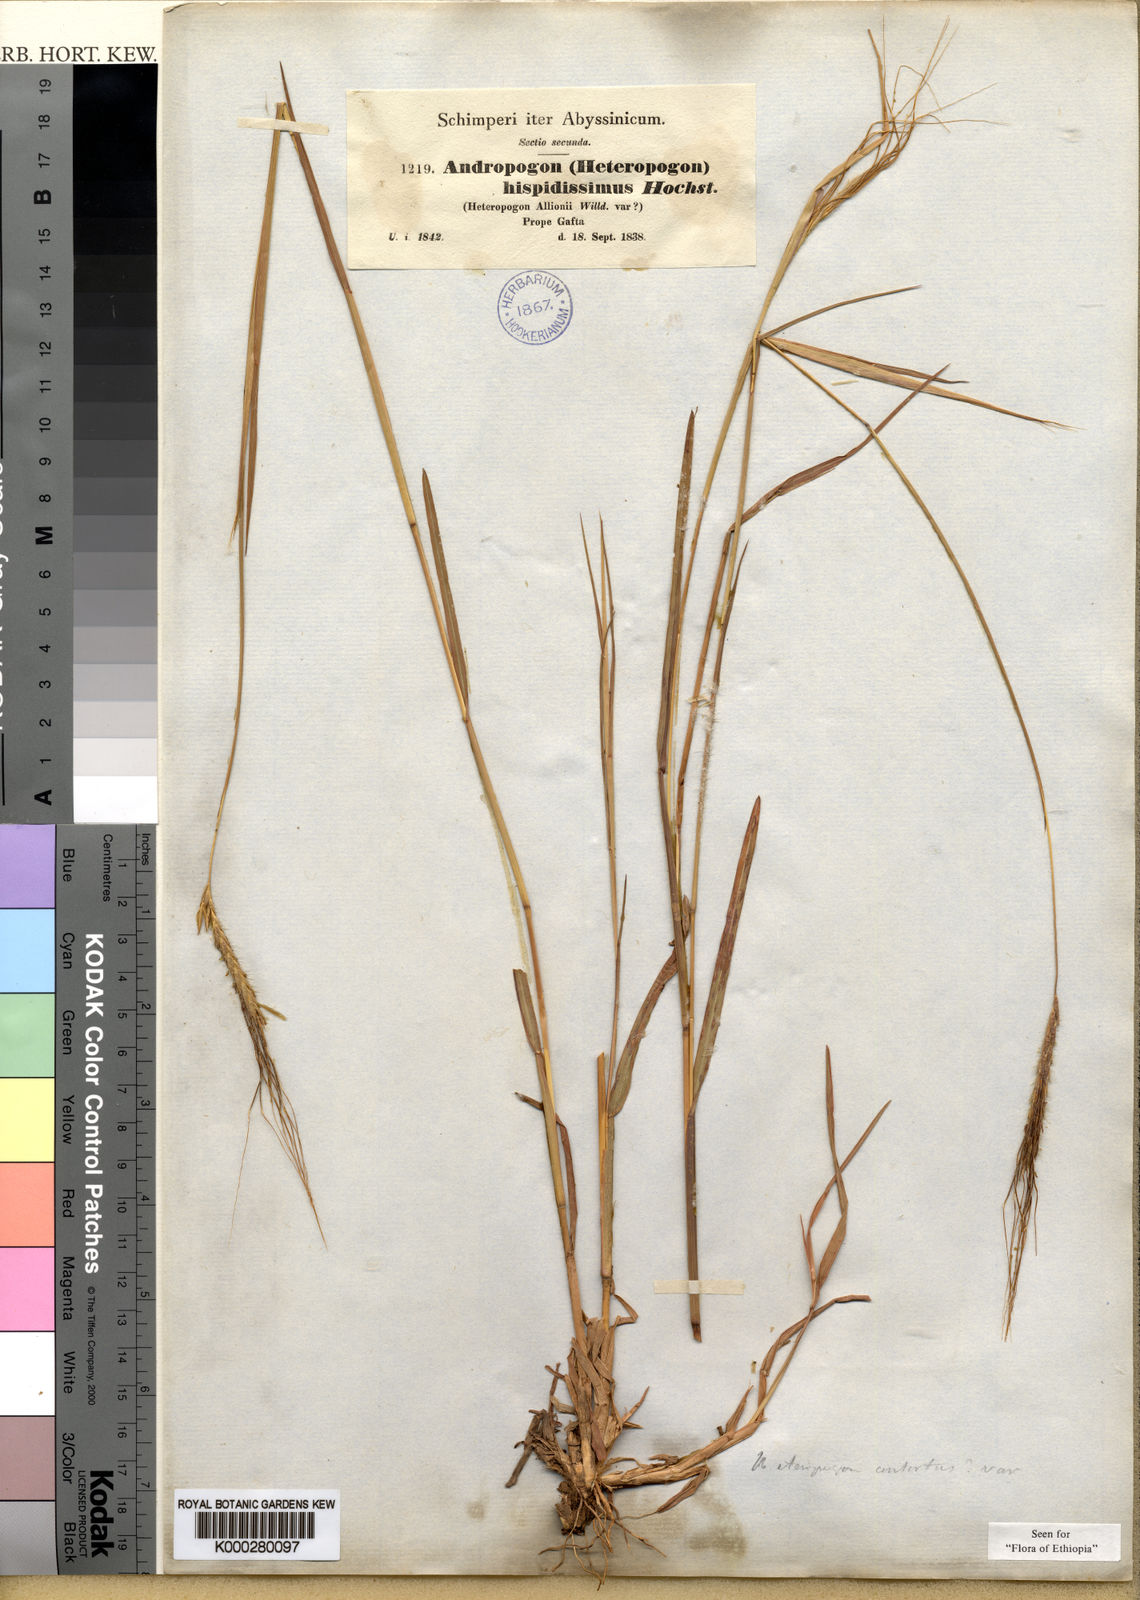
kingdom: Plantae
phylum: Tracheophyta
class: Liliopsida
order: Poales
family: Poaceae
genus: Heteropogon
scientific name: Heteropogon contortus
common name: Tanglehead
